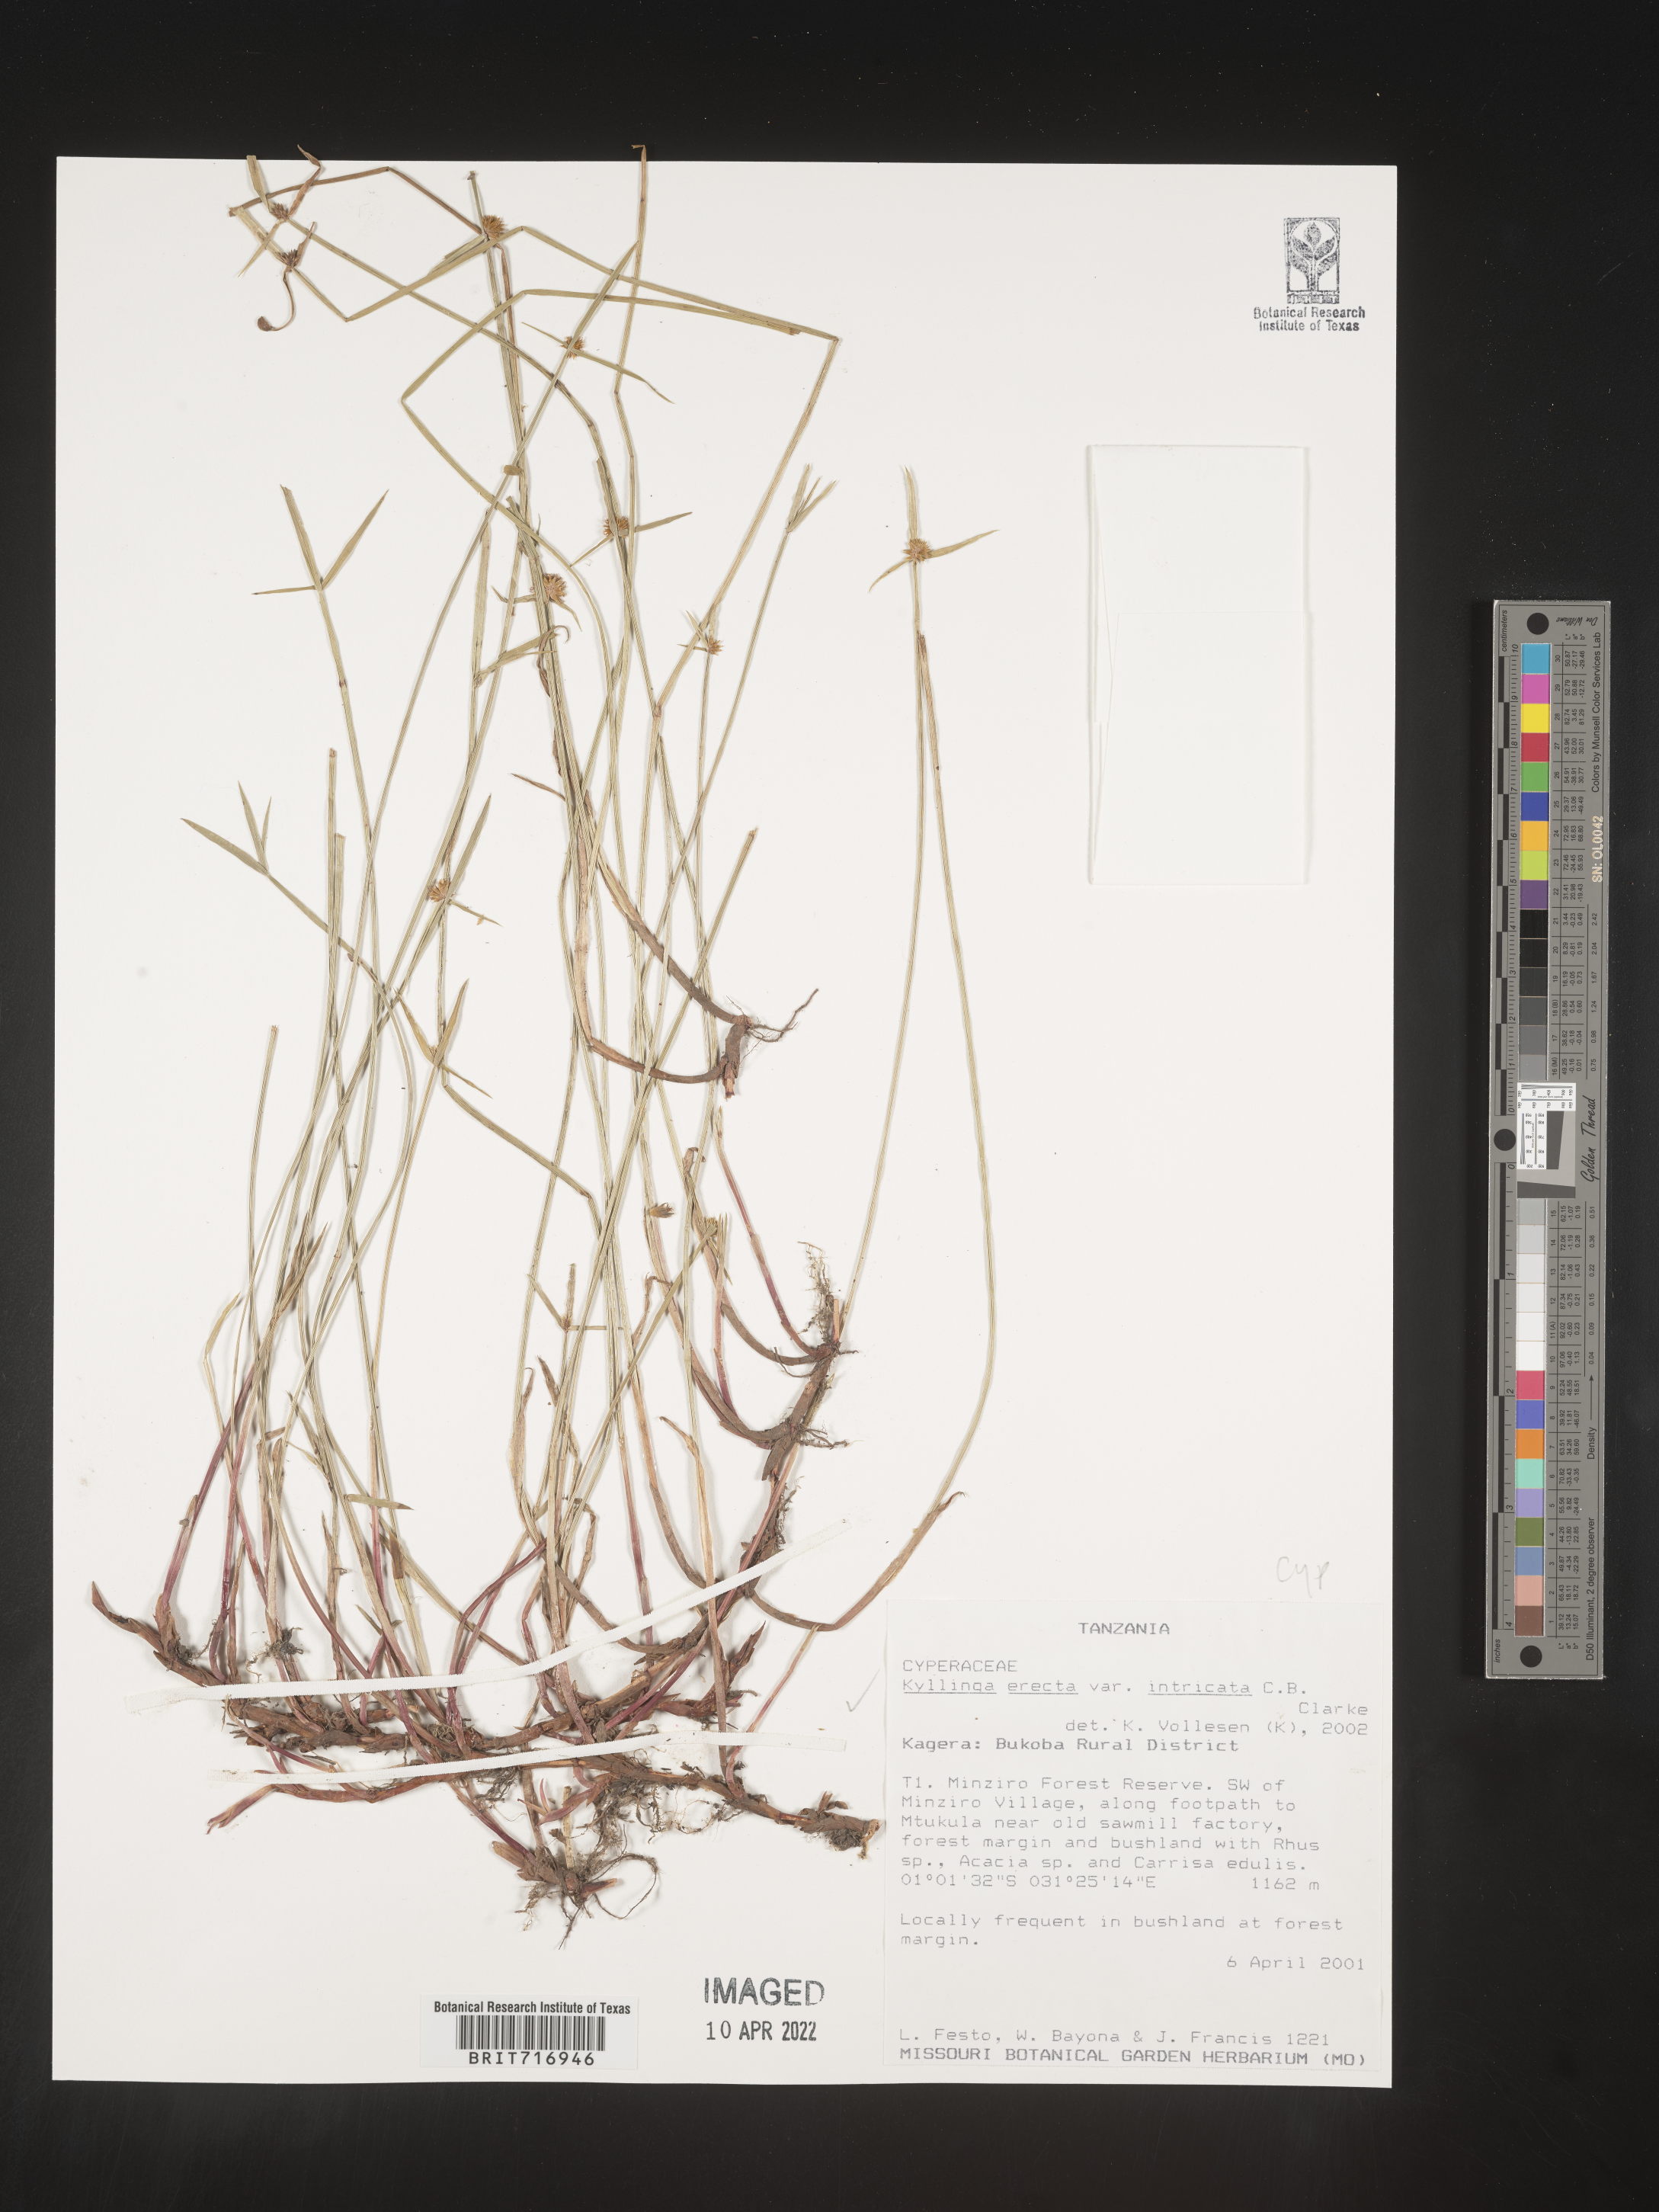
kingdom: Plantae
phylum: Tracheophyta
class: Liliopsida
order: Poales
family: Cyperaceae
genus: Cyperus
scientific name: Cyperus
